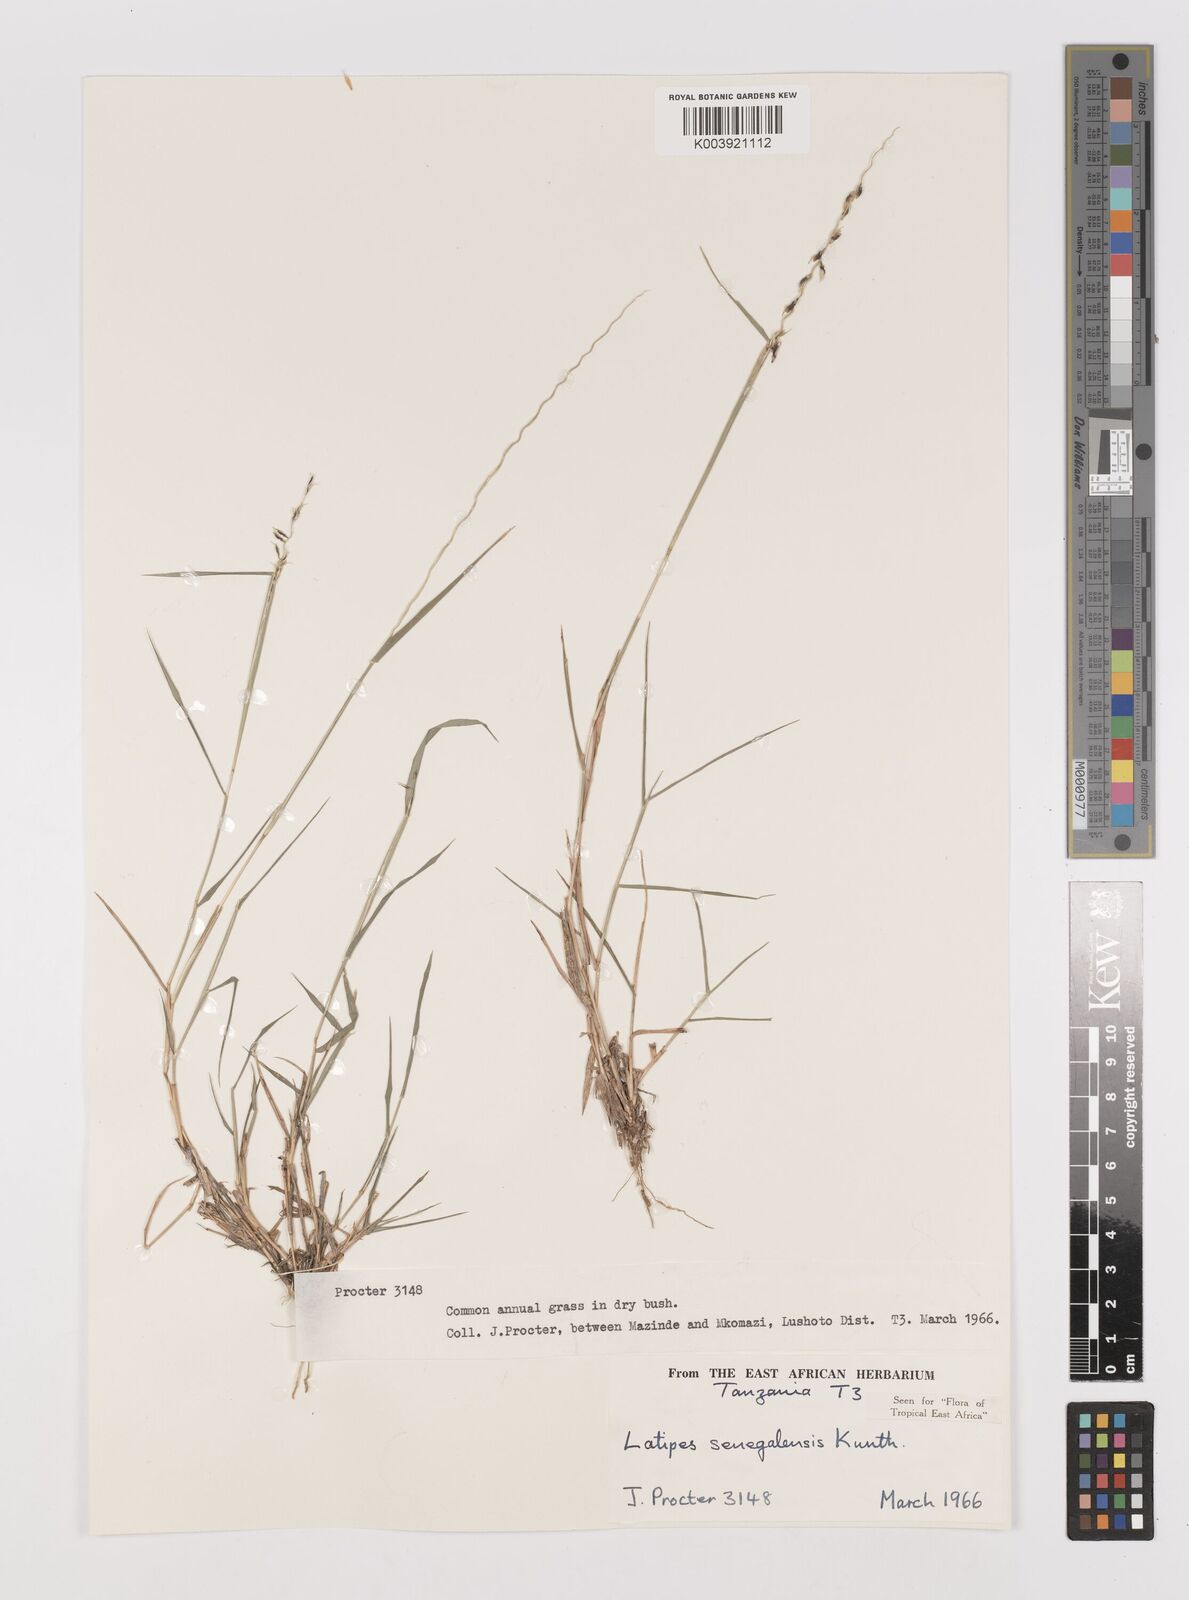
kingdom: Plantae
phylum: Tracheophyta
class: Liliopsida
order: Poales
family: Poaceae
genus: Leptothrium
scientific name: Leptothrium senegalense
